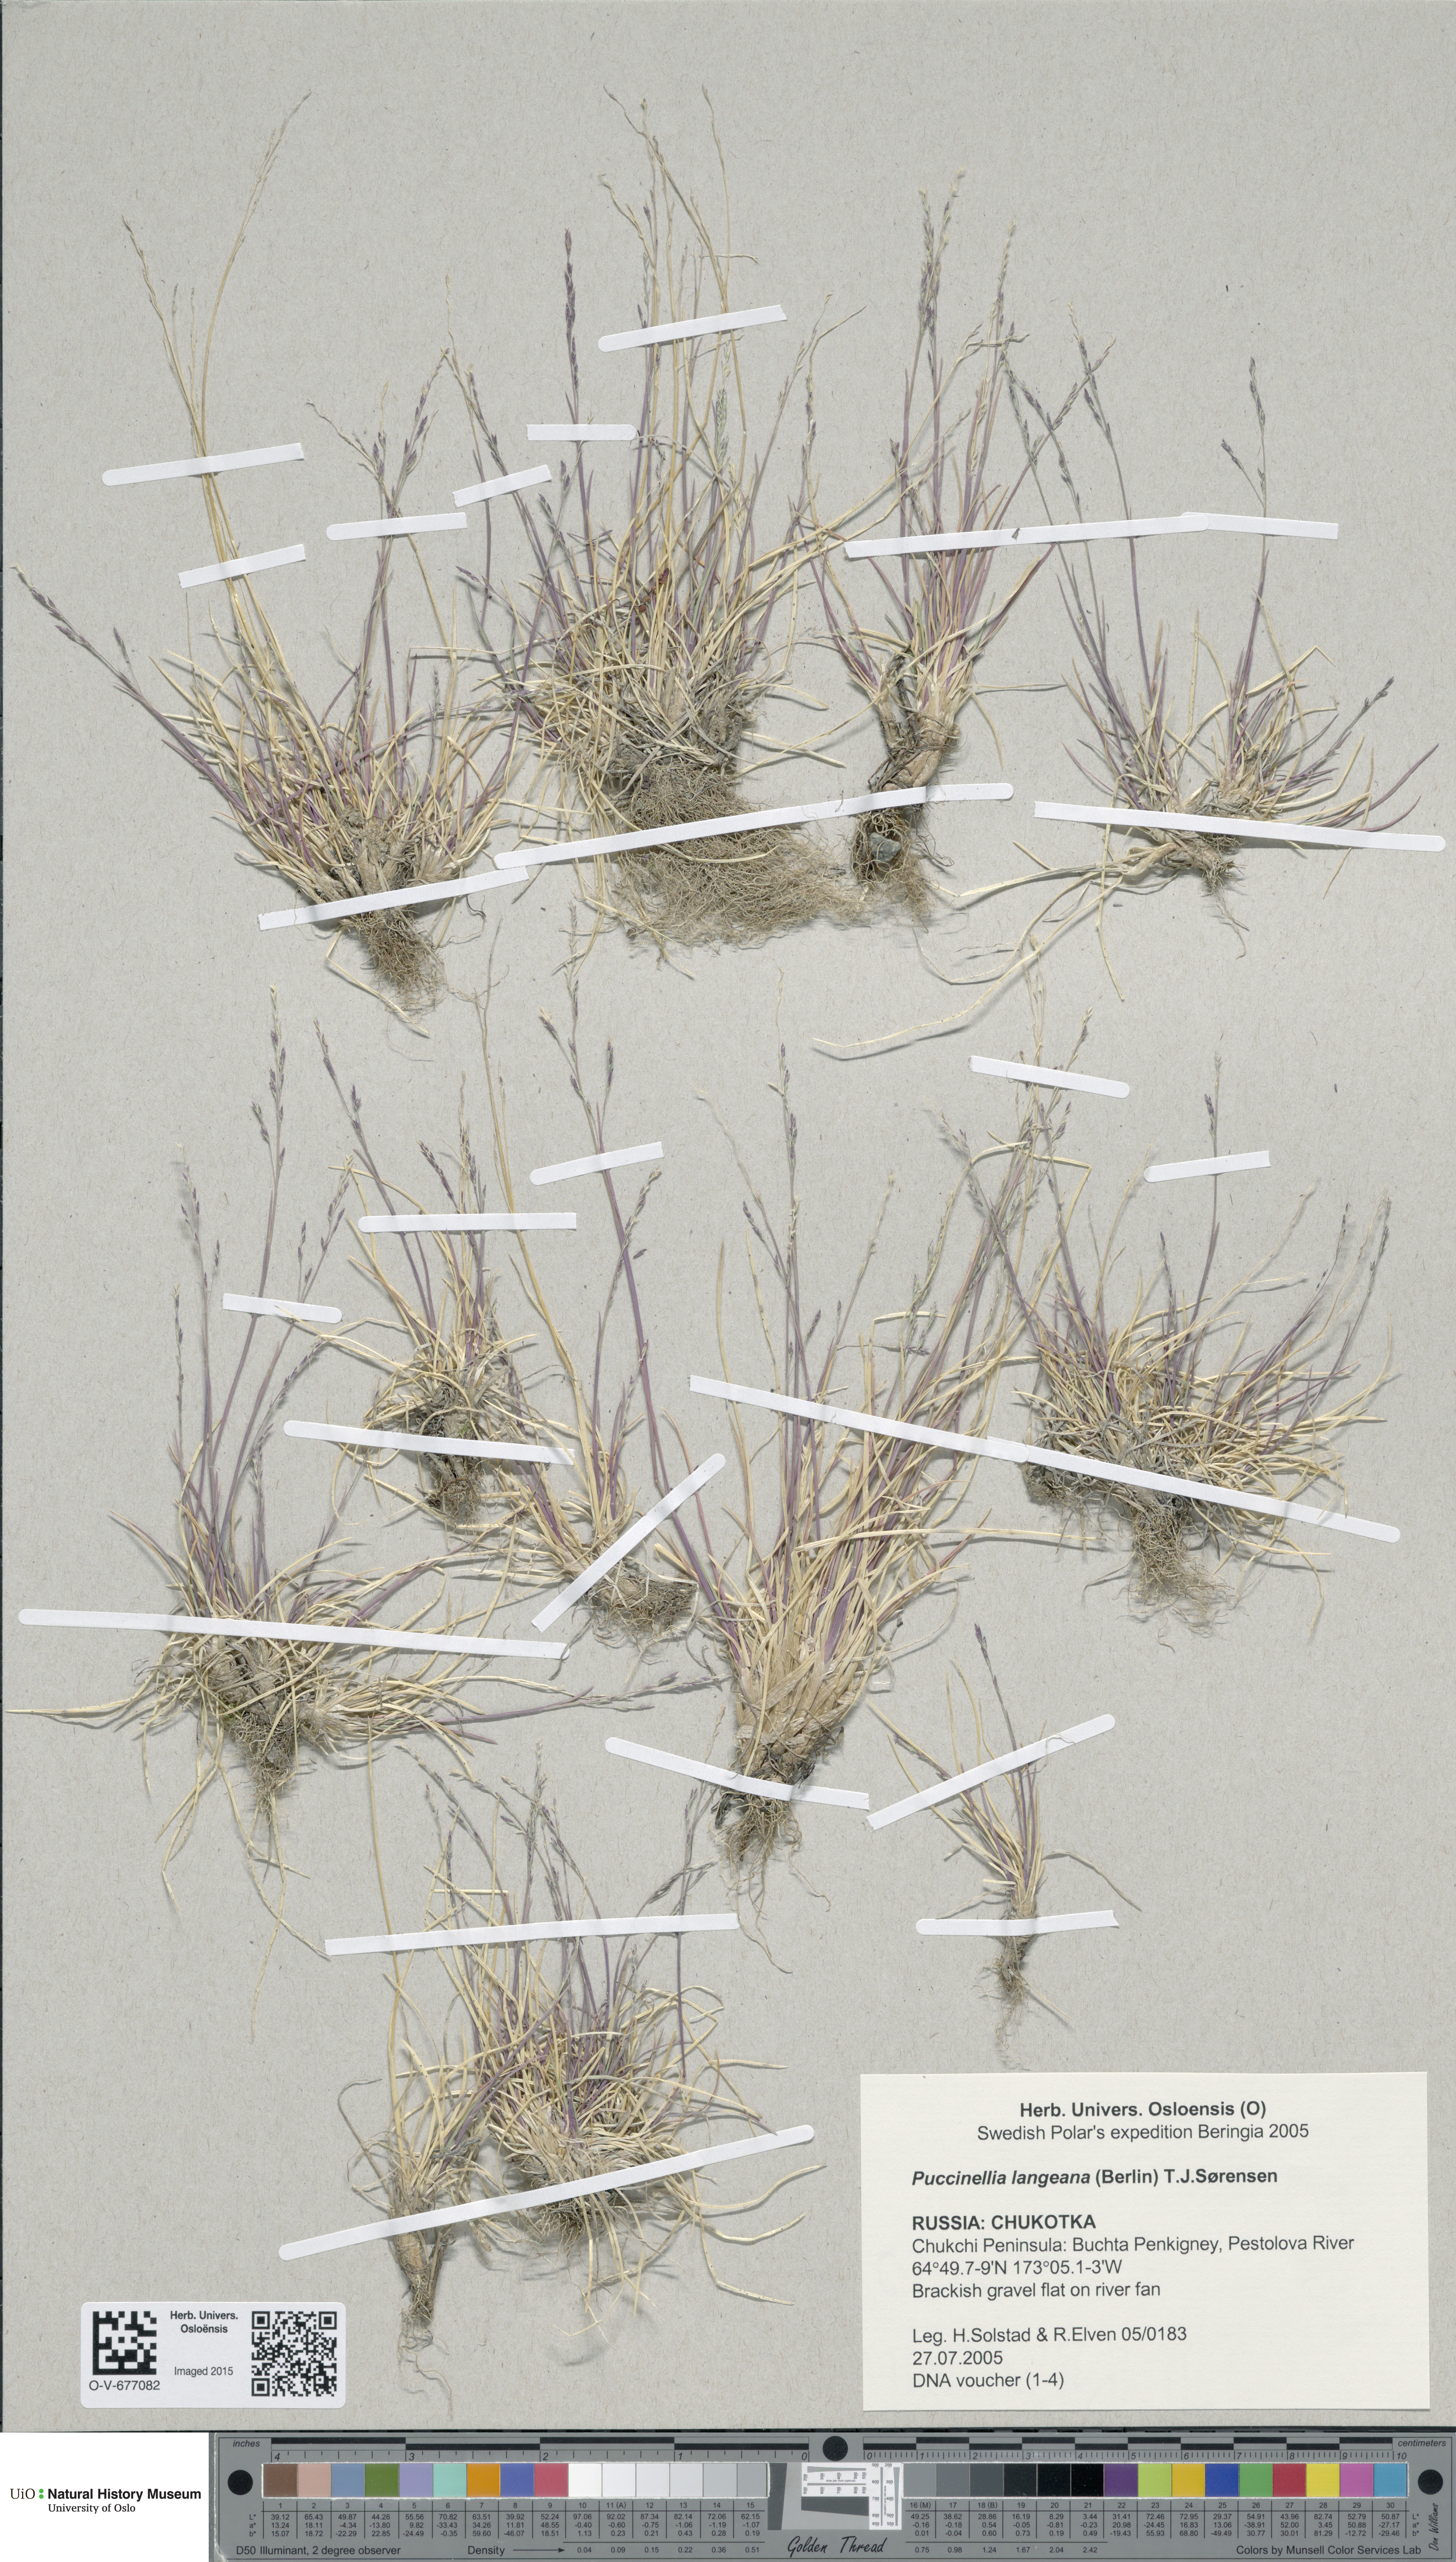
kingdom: Plantae
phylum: Tracheophyta
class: Liliopsida
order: Poales
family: Poaceae
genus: Puccinellia
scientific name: Puccinellia tenella
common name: Tundra alkaligrass
